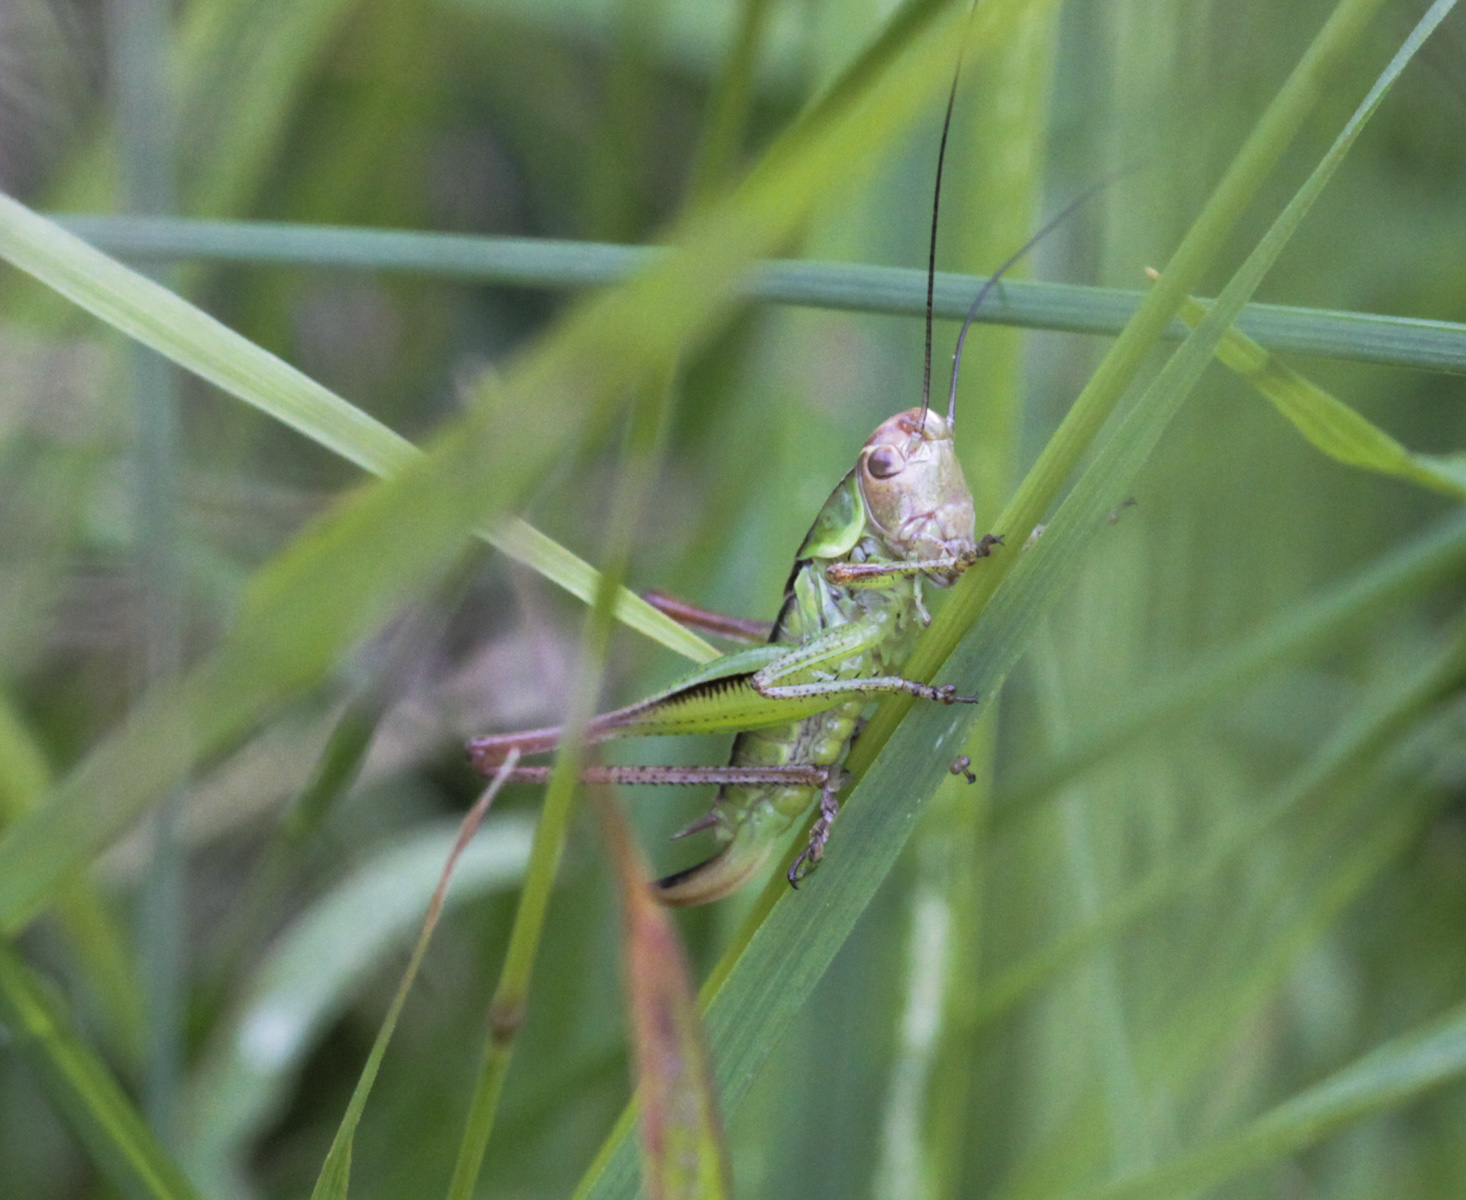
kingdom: Animalia
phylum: Arthropoda
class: Insecta
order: Orthoptera
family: Tettigoniidae
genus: Roeseliana
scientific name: Roeseliana roeselii
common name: Roesel's bush cricket
